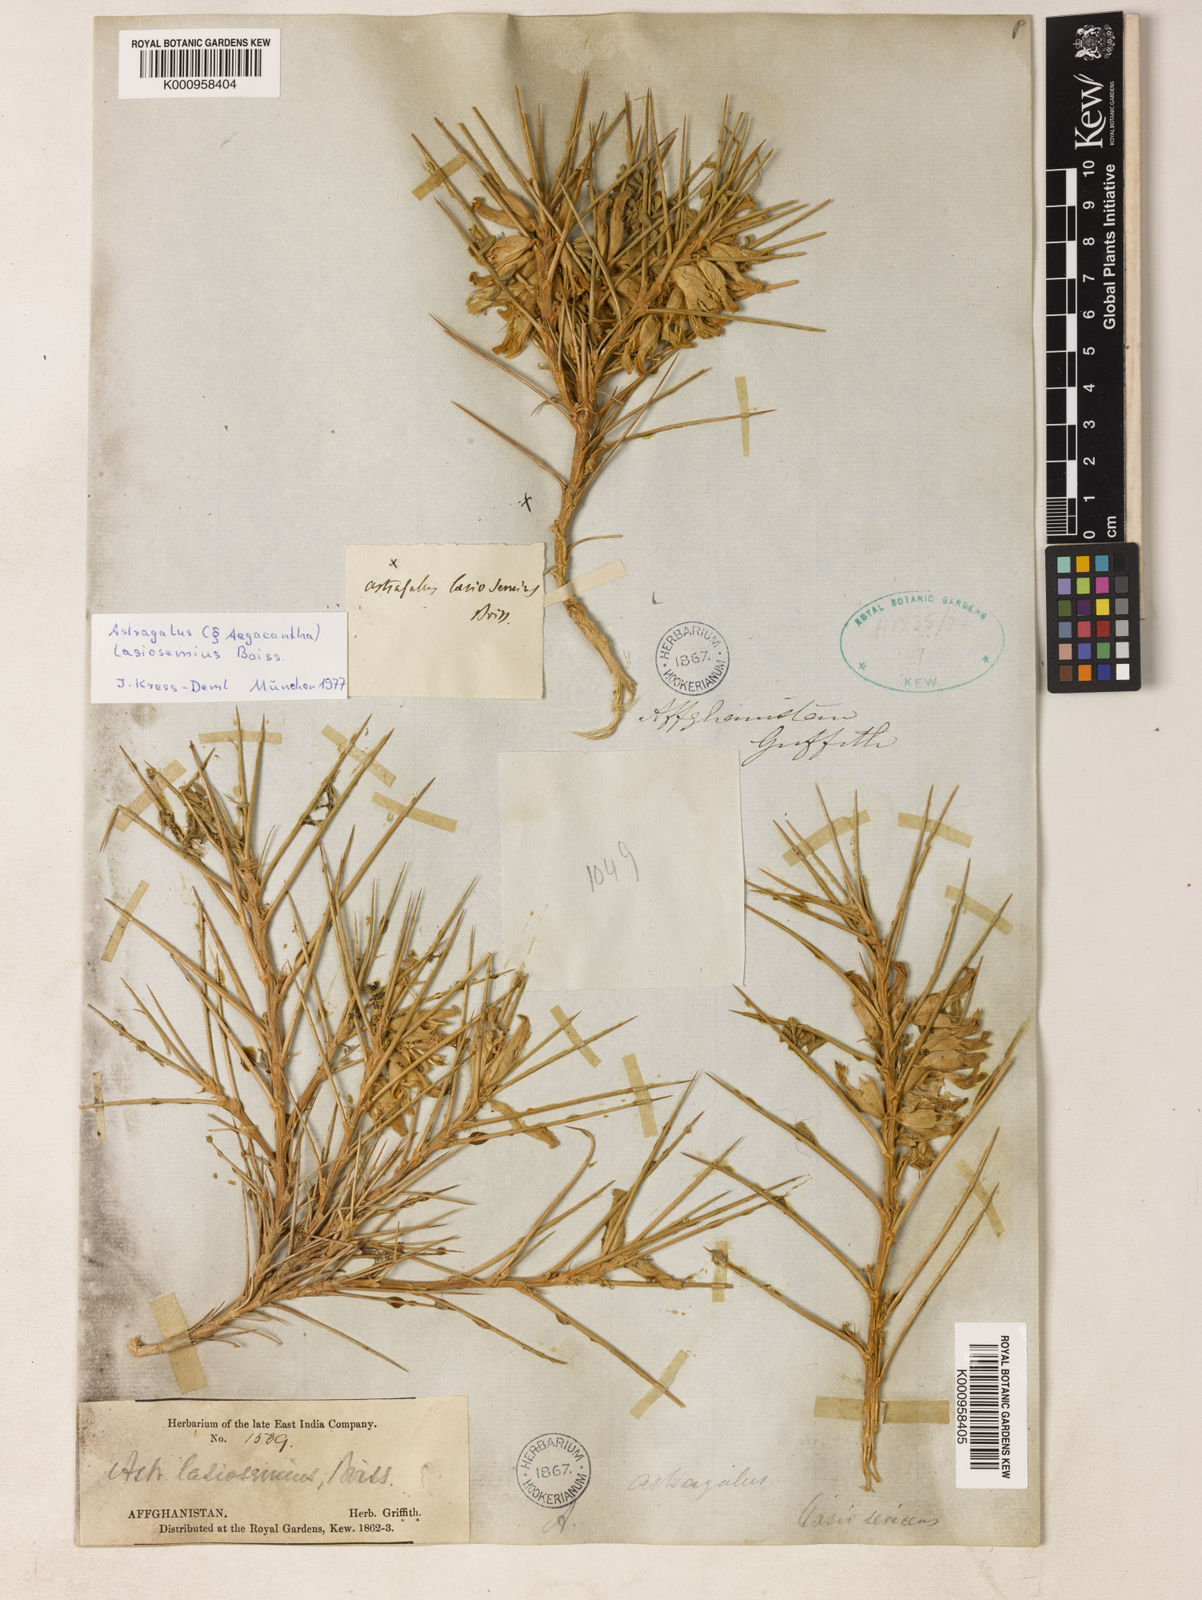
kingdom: Plantae
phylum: Tracheophyta
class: Magnoliopsida
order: Fabales
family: Fabaceae
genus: Astragalus
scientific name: Astragalus
